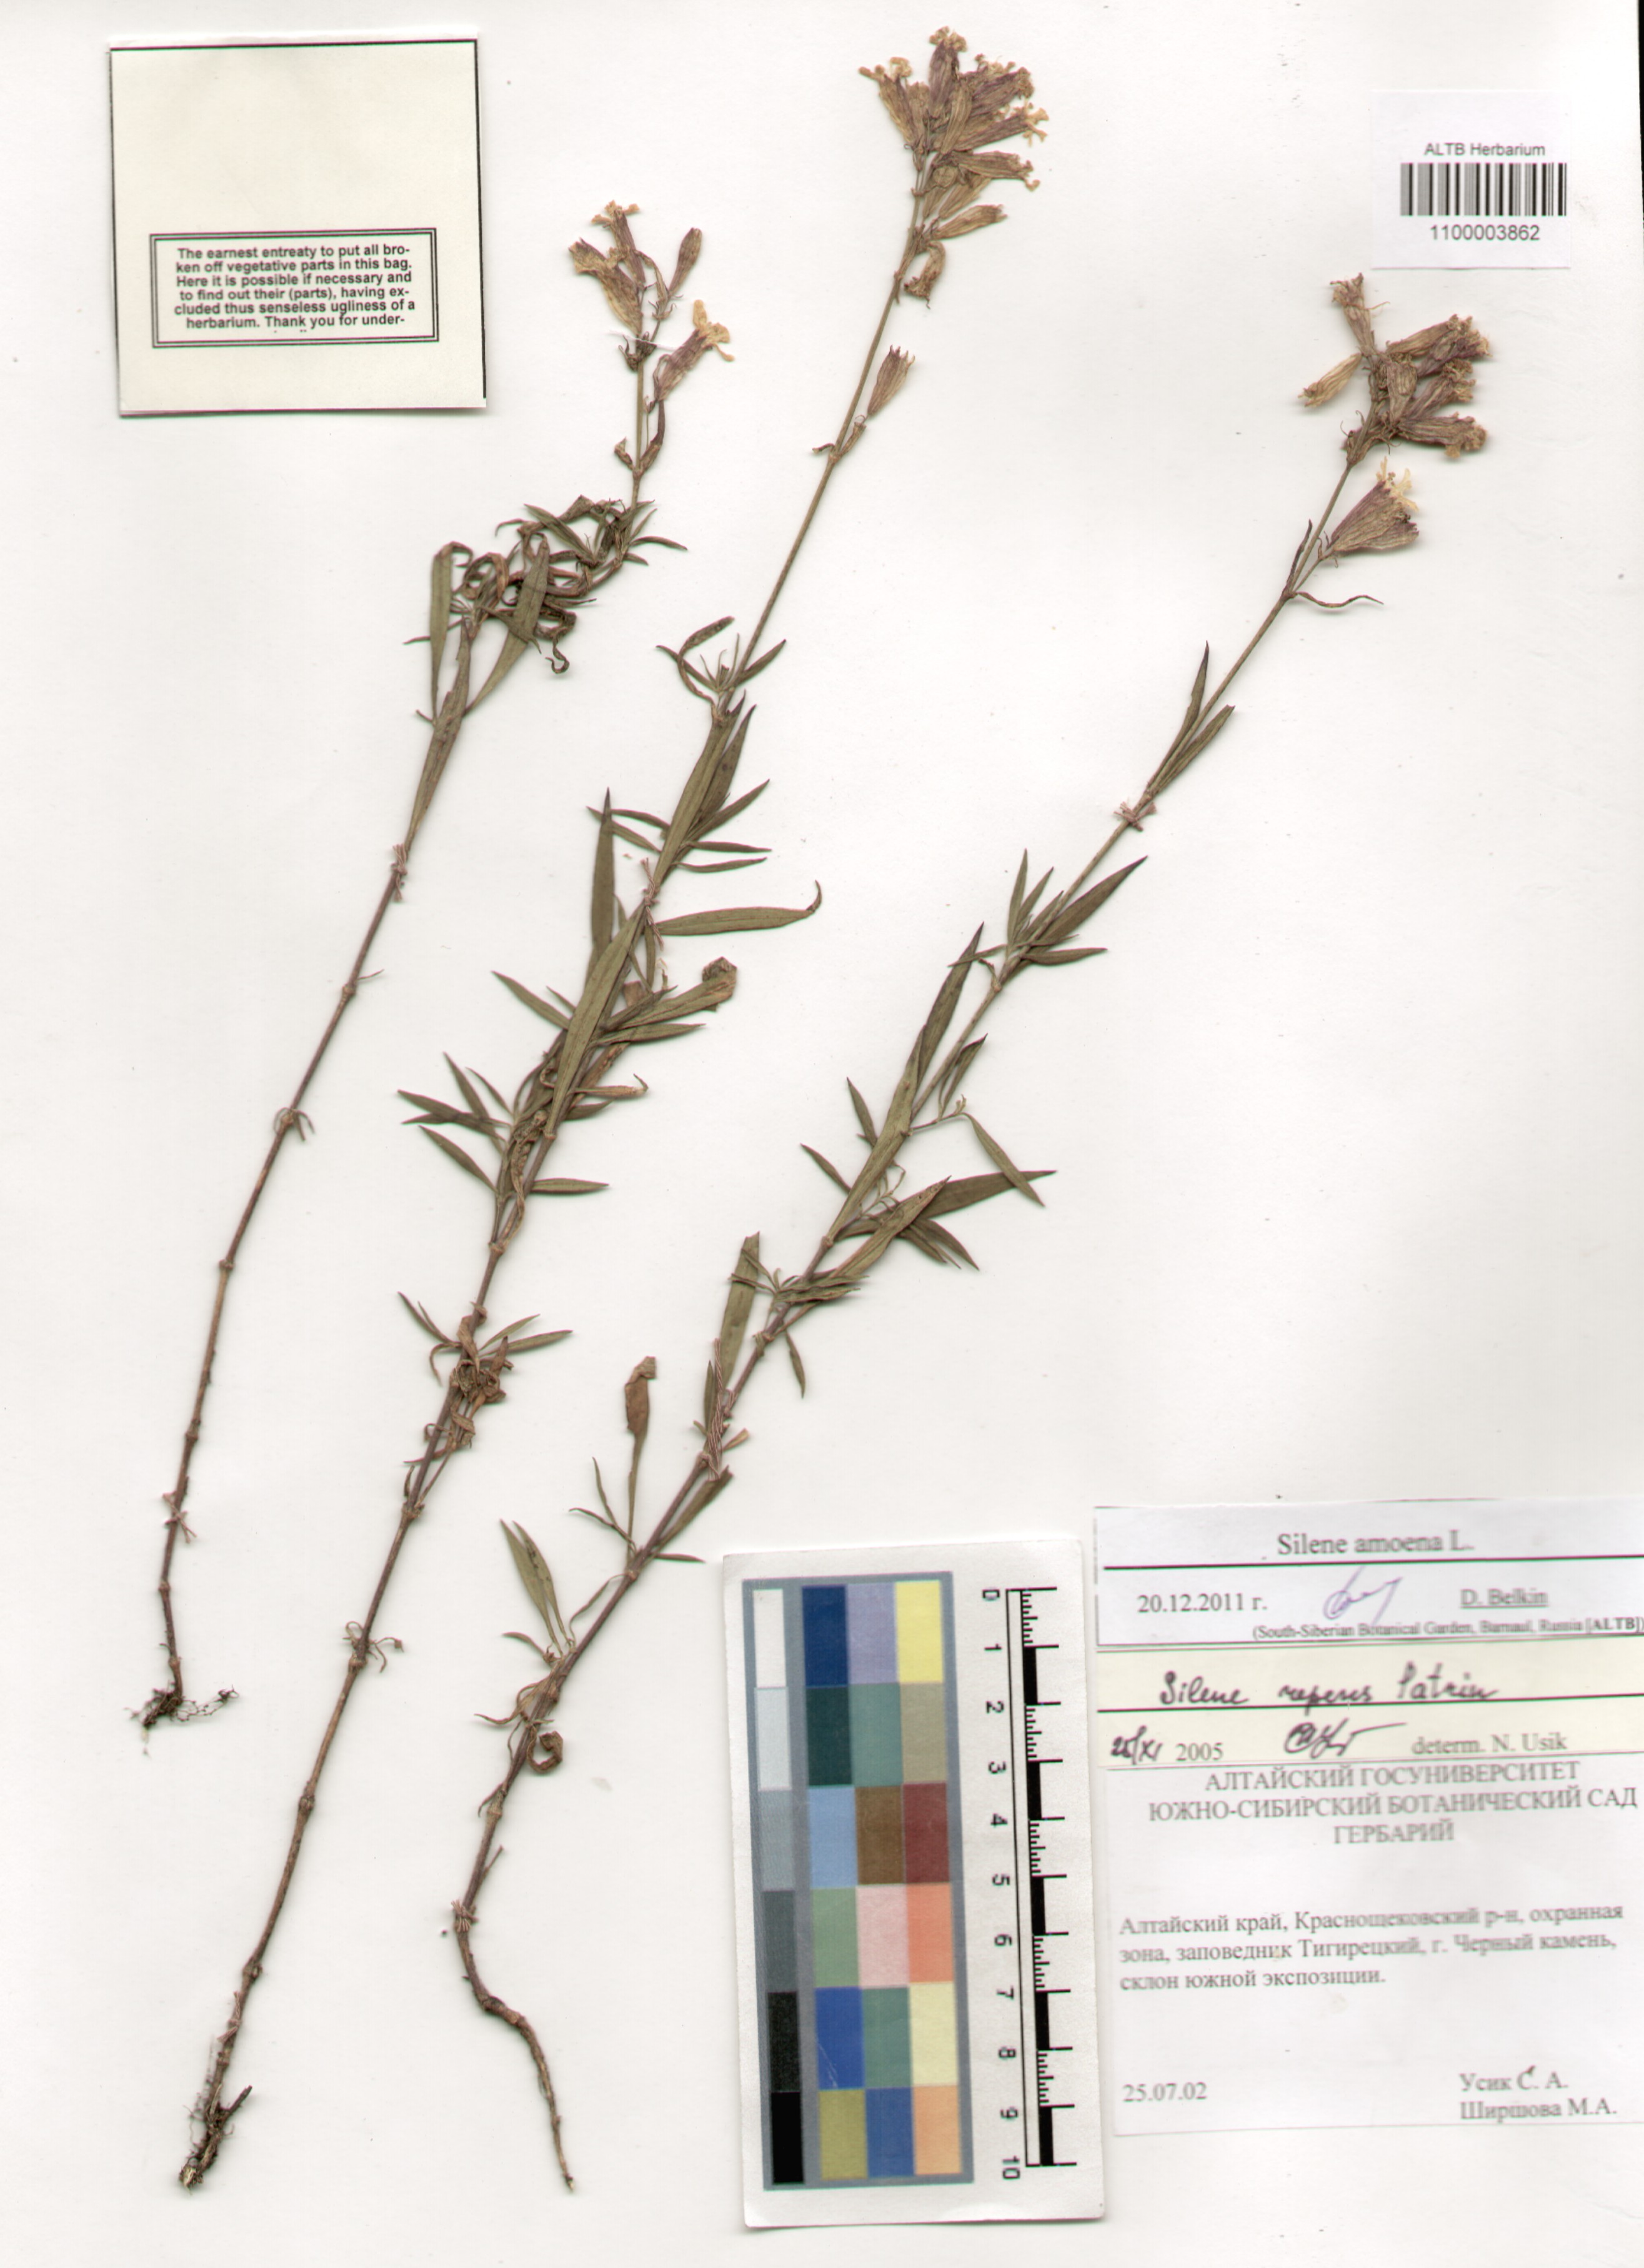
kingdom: Plantae
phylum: Tracheophyta
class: Magnoliopsida
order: Caryophyllales
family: Caryophyllaceae
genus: Silene
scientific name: Silene amoena
